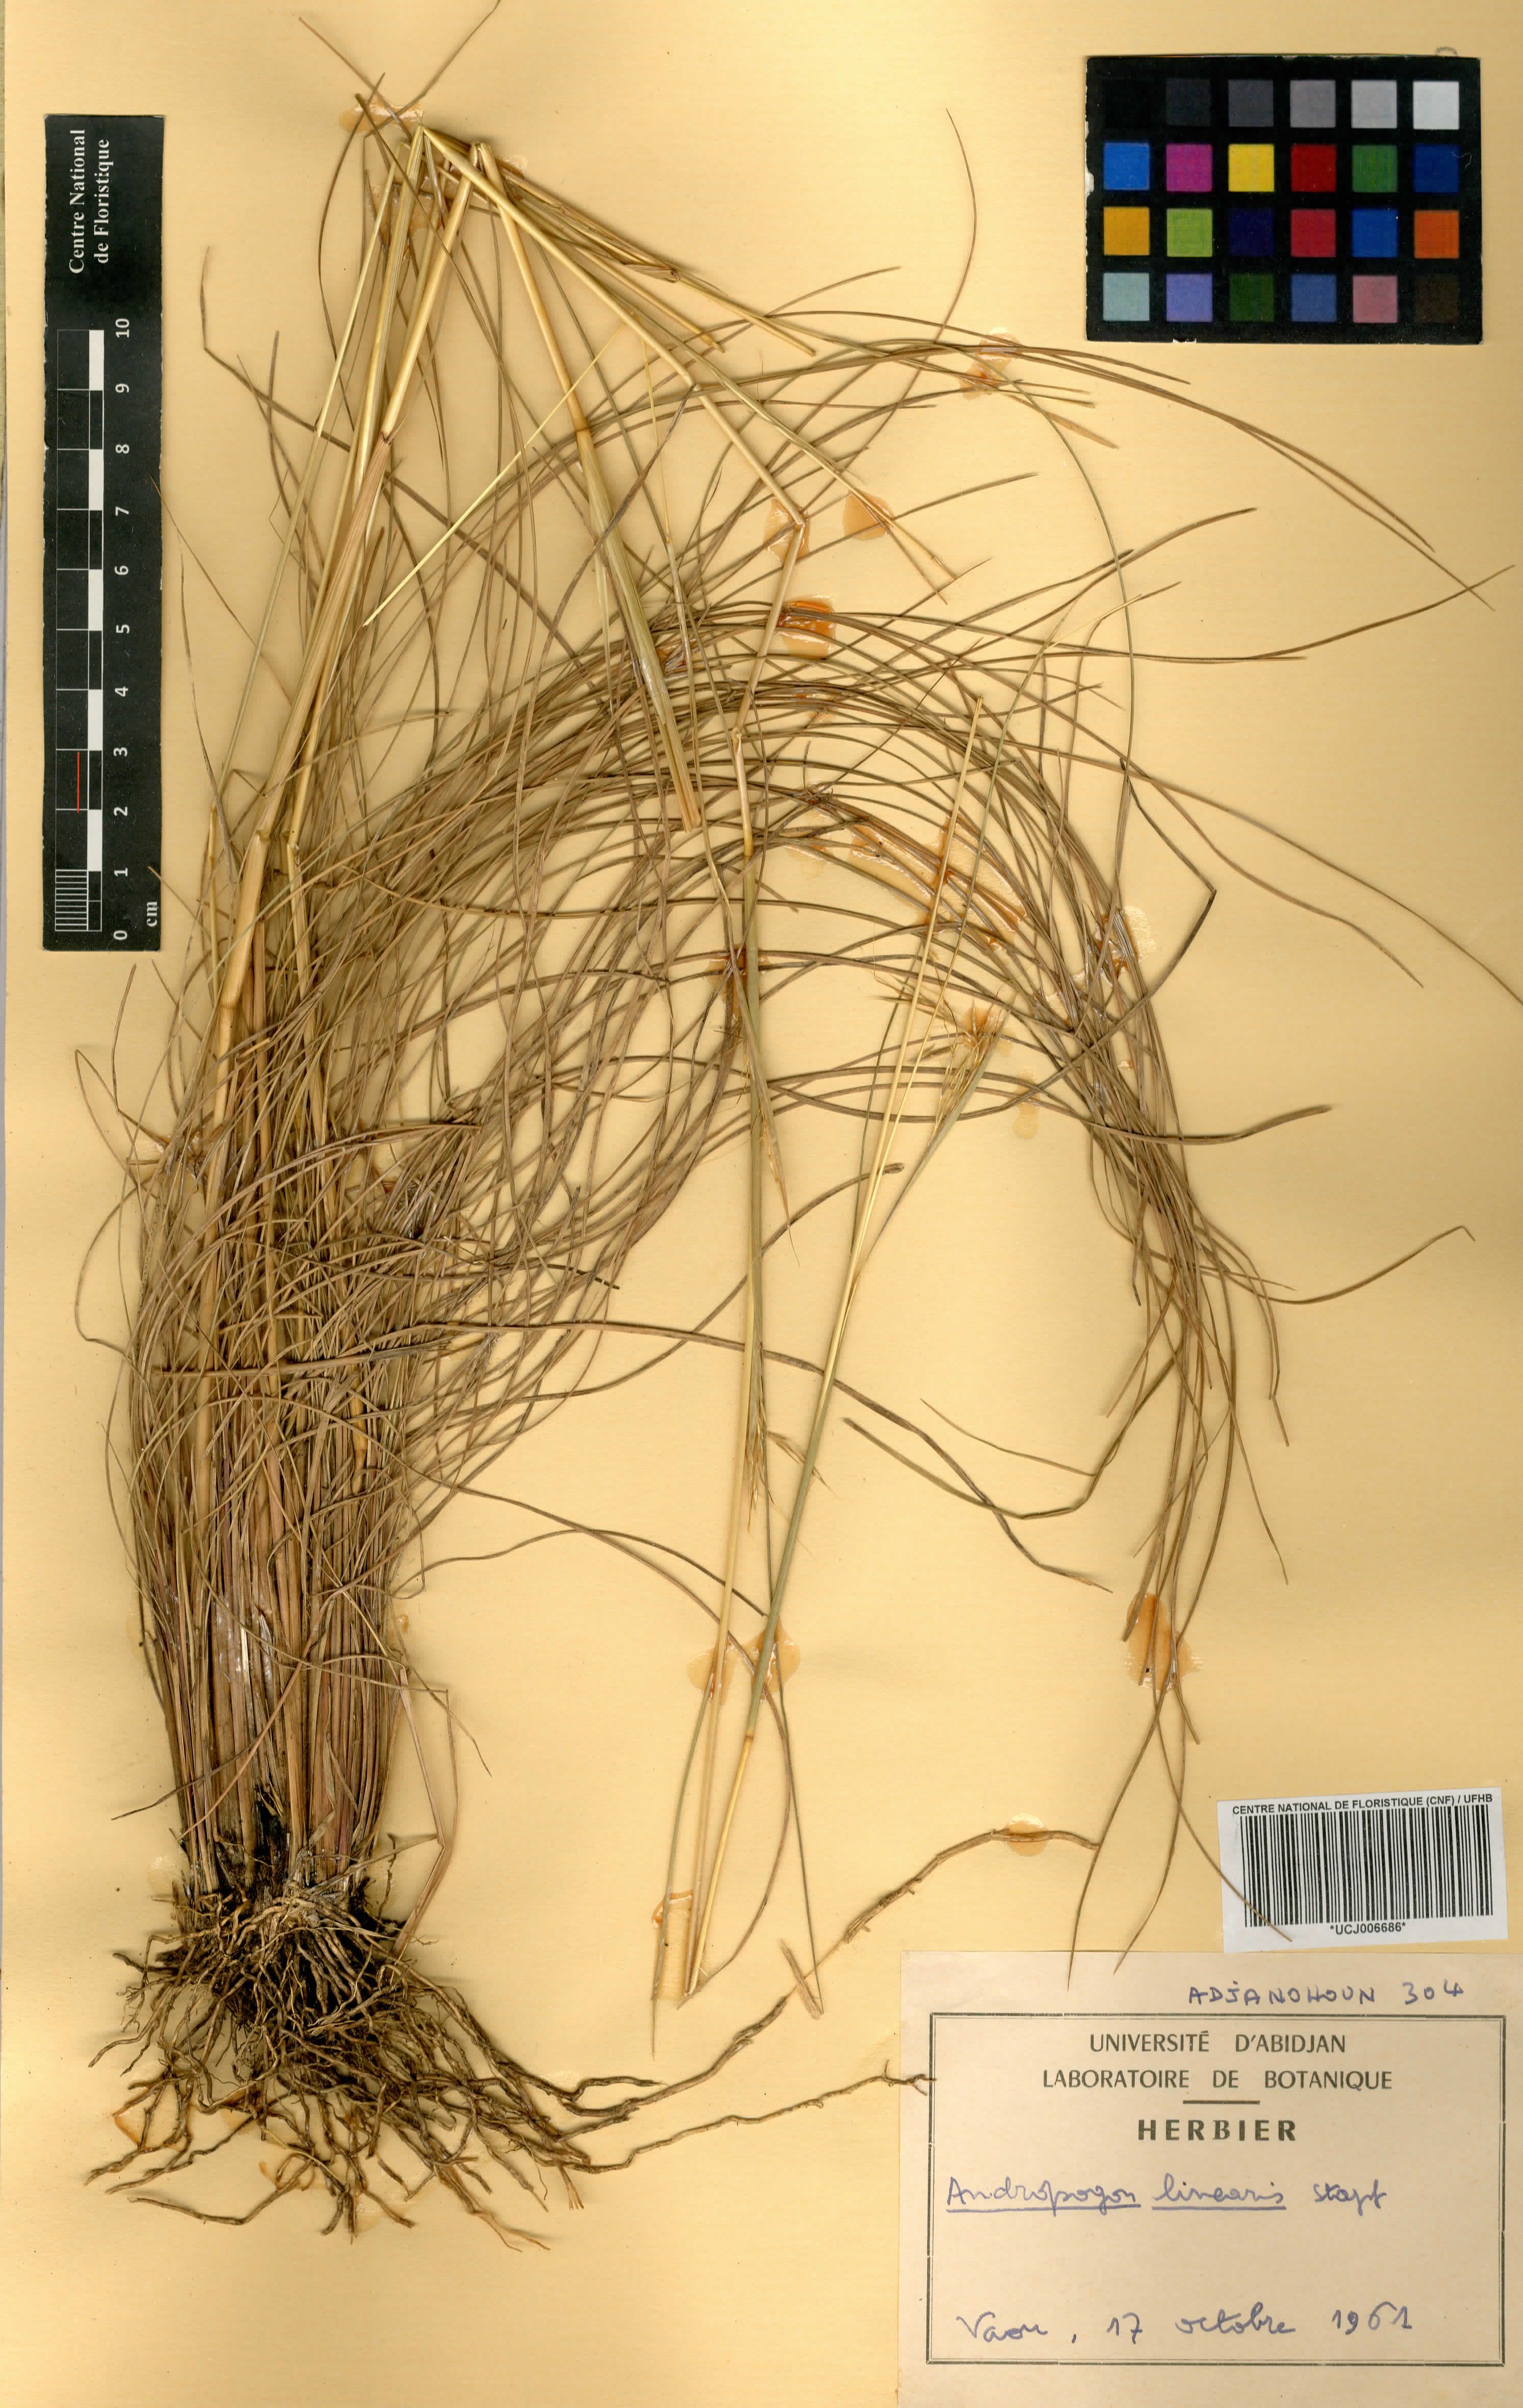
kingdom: Plantae
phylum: Tracheophyta
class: Liliopsida
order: Poales
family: Poaceae
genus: Andropogon
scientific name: Andropogon africanus
